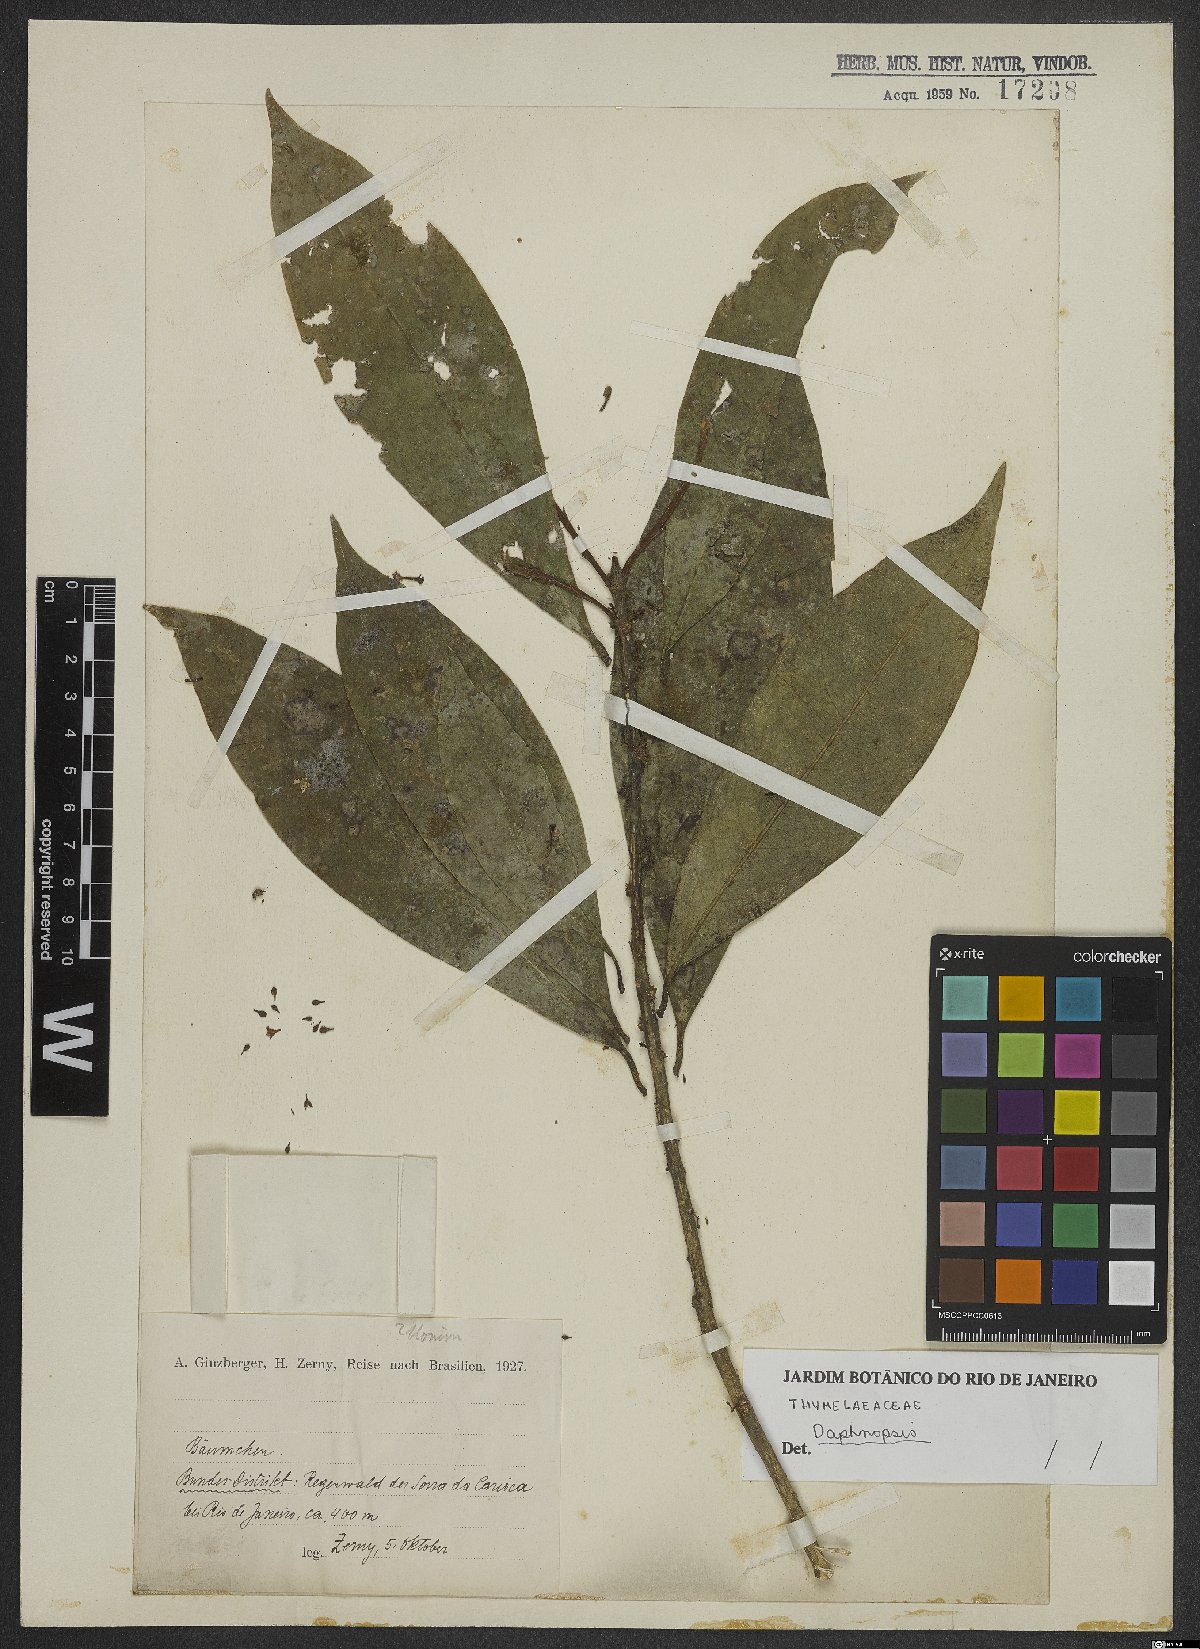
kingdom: Plantae
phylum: Tracheophyta
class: Magnoliopsida
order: Malvales
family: Thymelaeaceae
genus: Daphnopsis
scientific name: Daphnopsis
